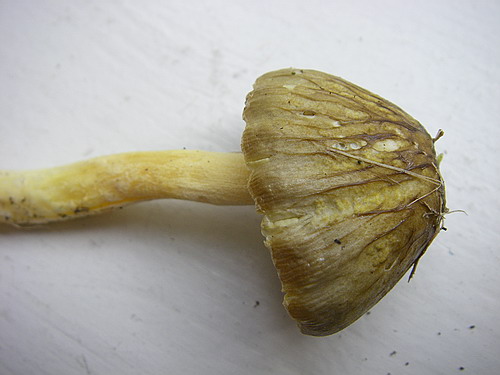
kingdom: Fungi
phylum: Basidiomycota
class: Agaricomycetes
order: Agaricales
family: Bolbitiaceae
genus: Bolbitius
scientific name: Bolbitius titubans
